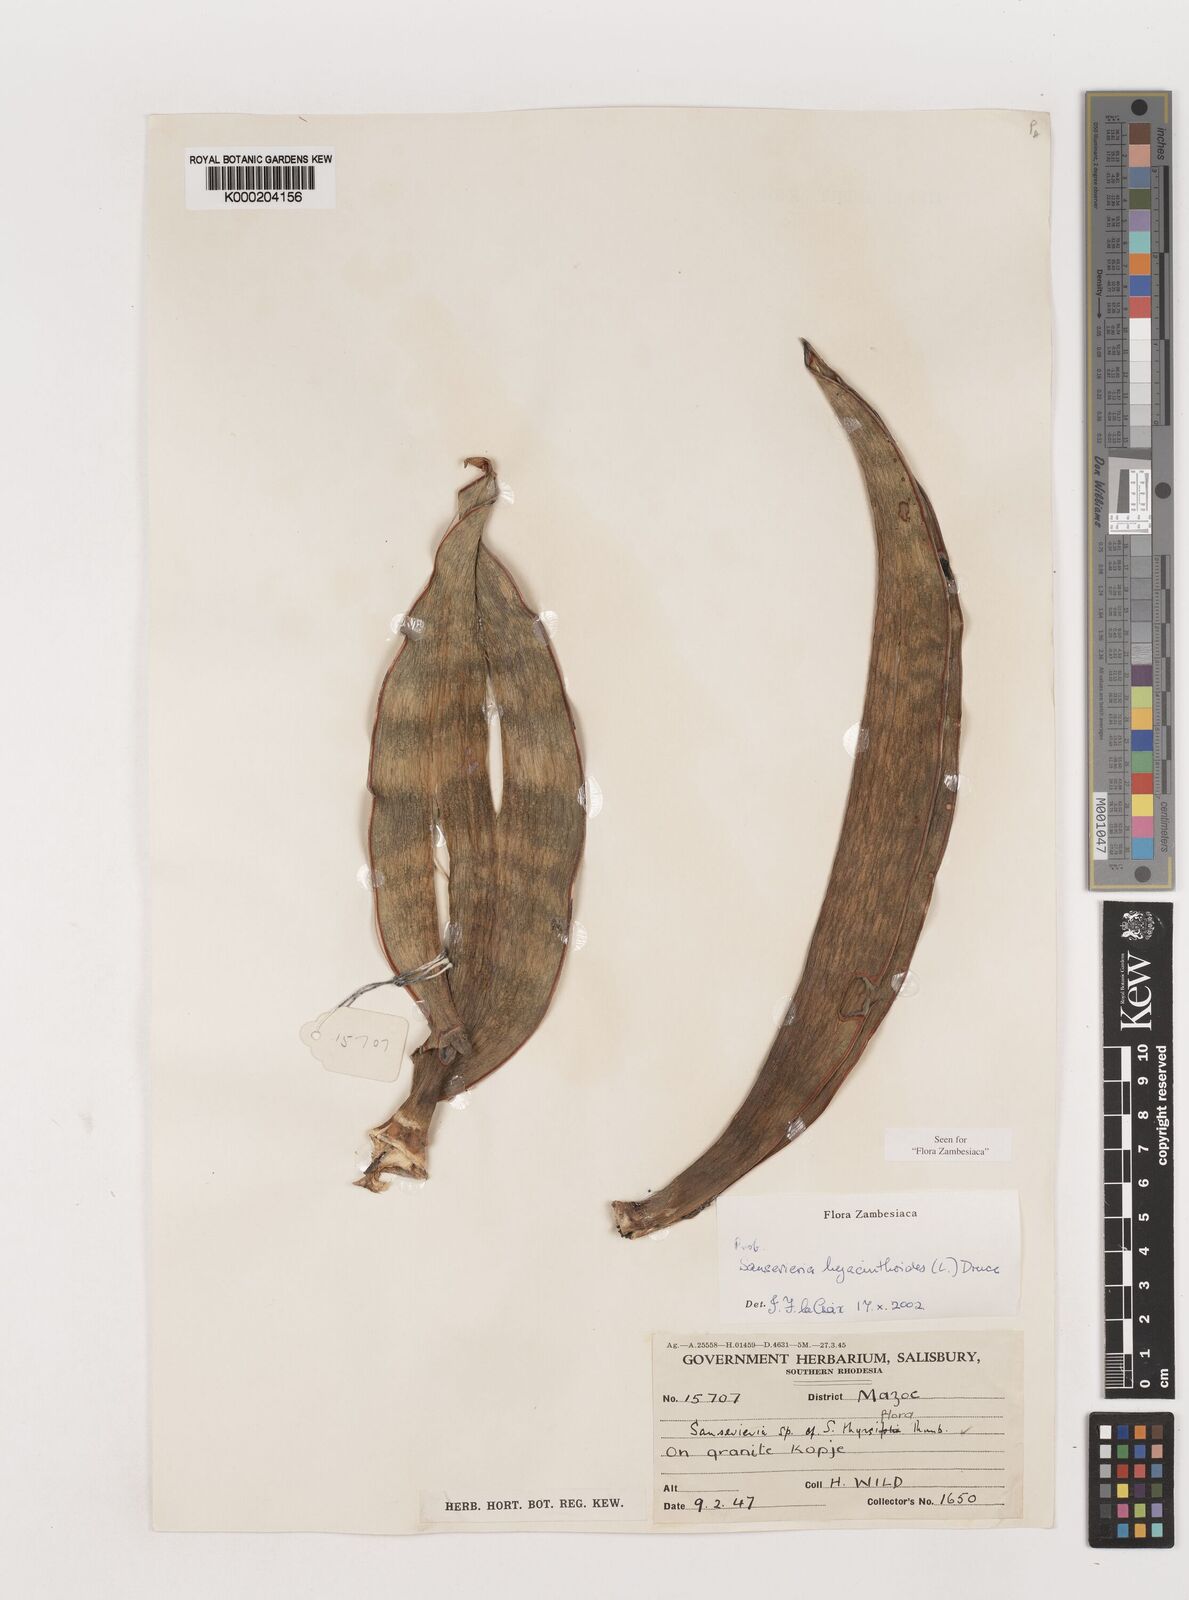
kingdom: Plantae
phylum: Tracheophyta
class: Liliopsida
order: Asparagales
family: Asparagaceae
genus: Dracaena
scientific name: Dracaena hyacinthoides
